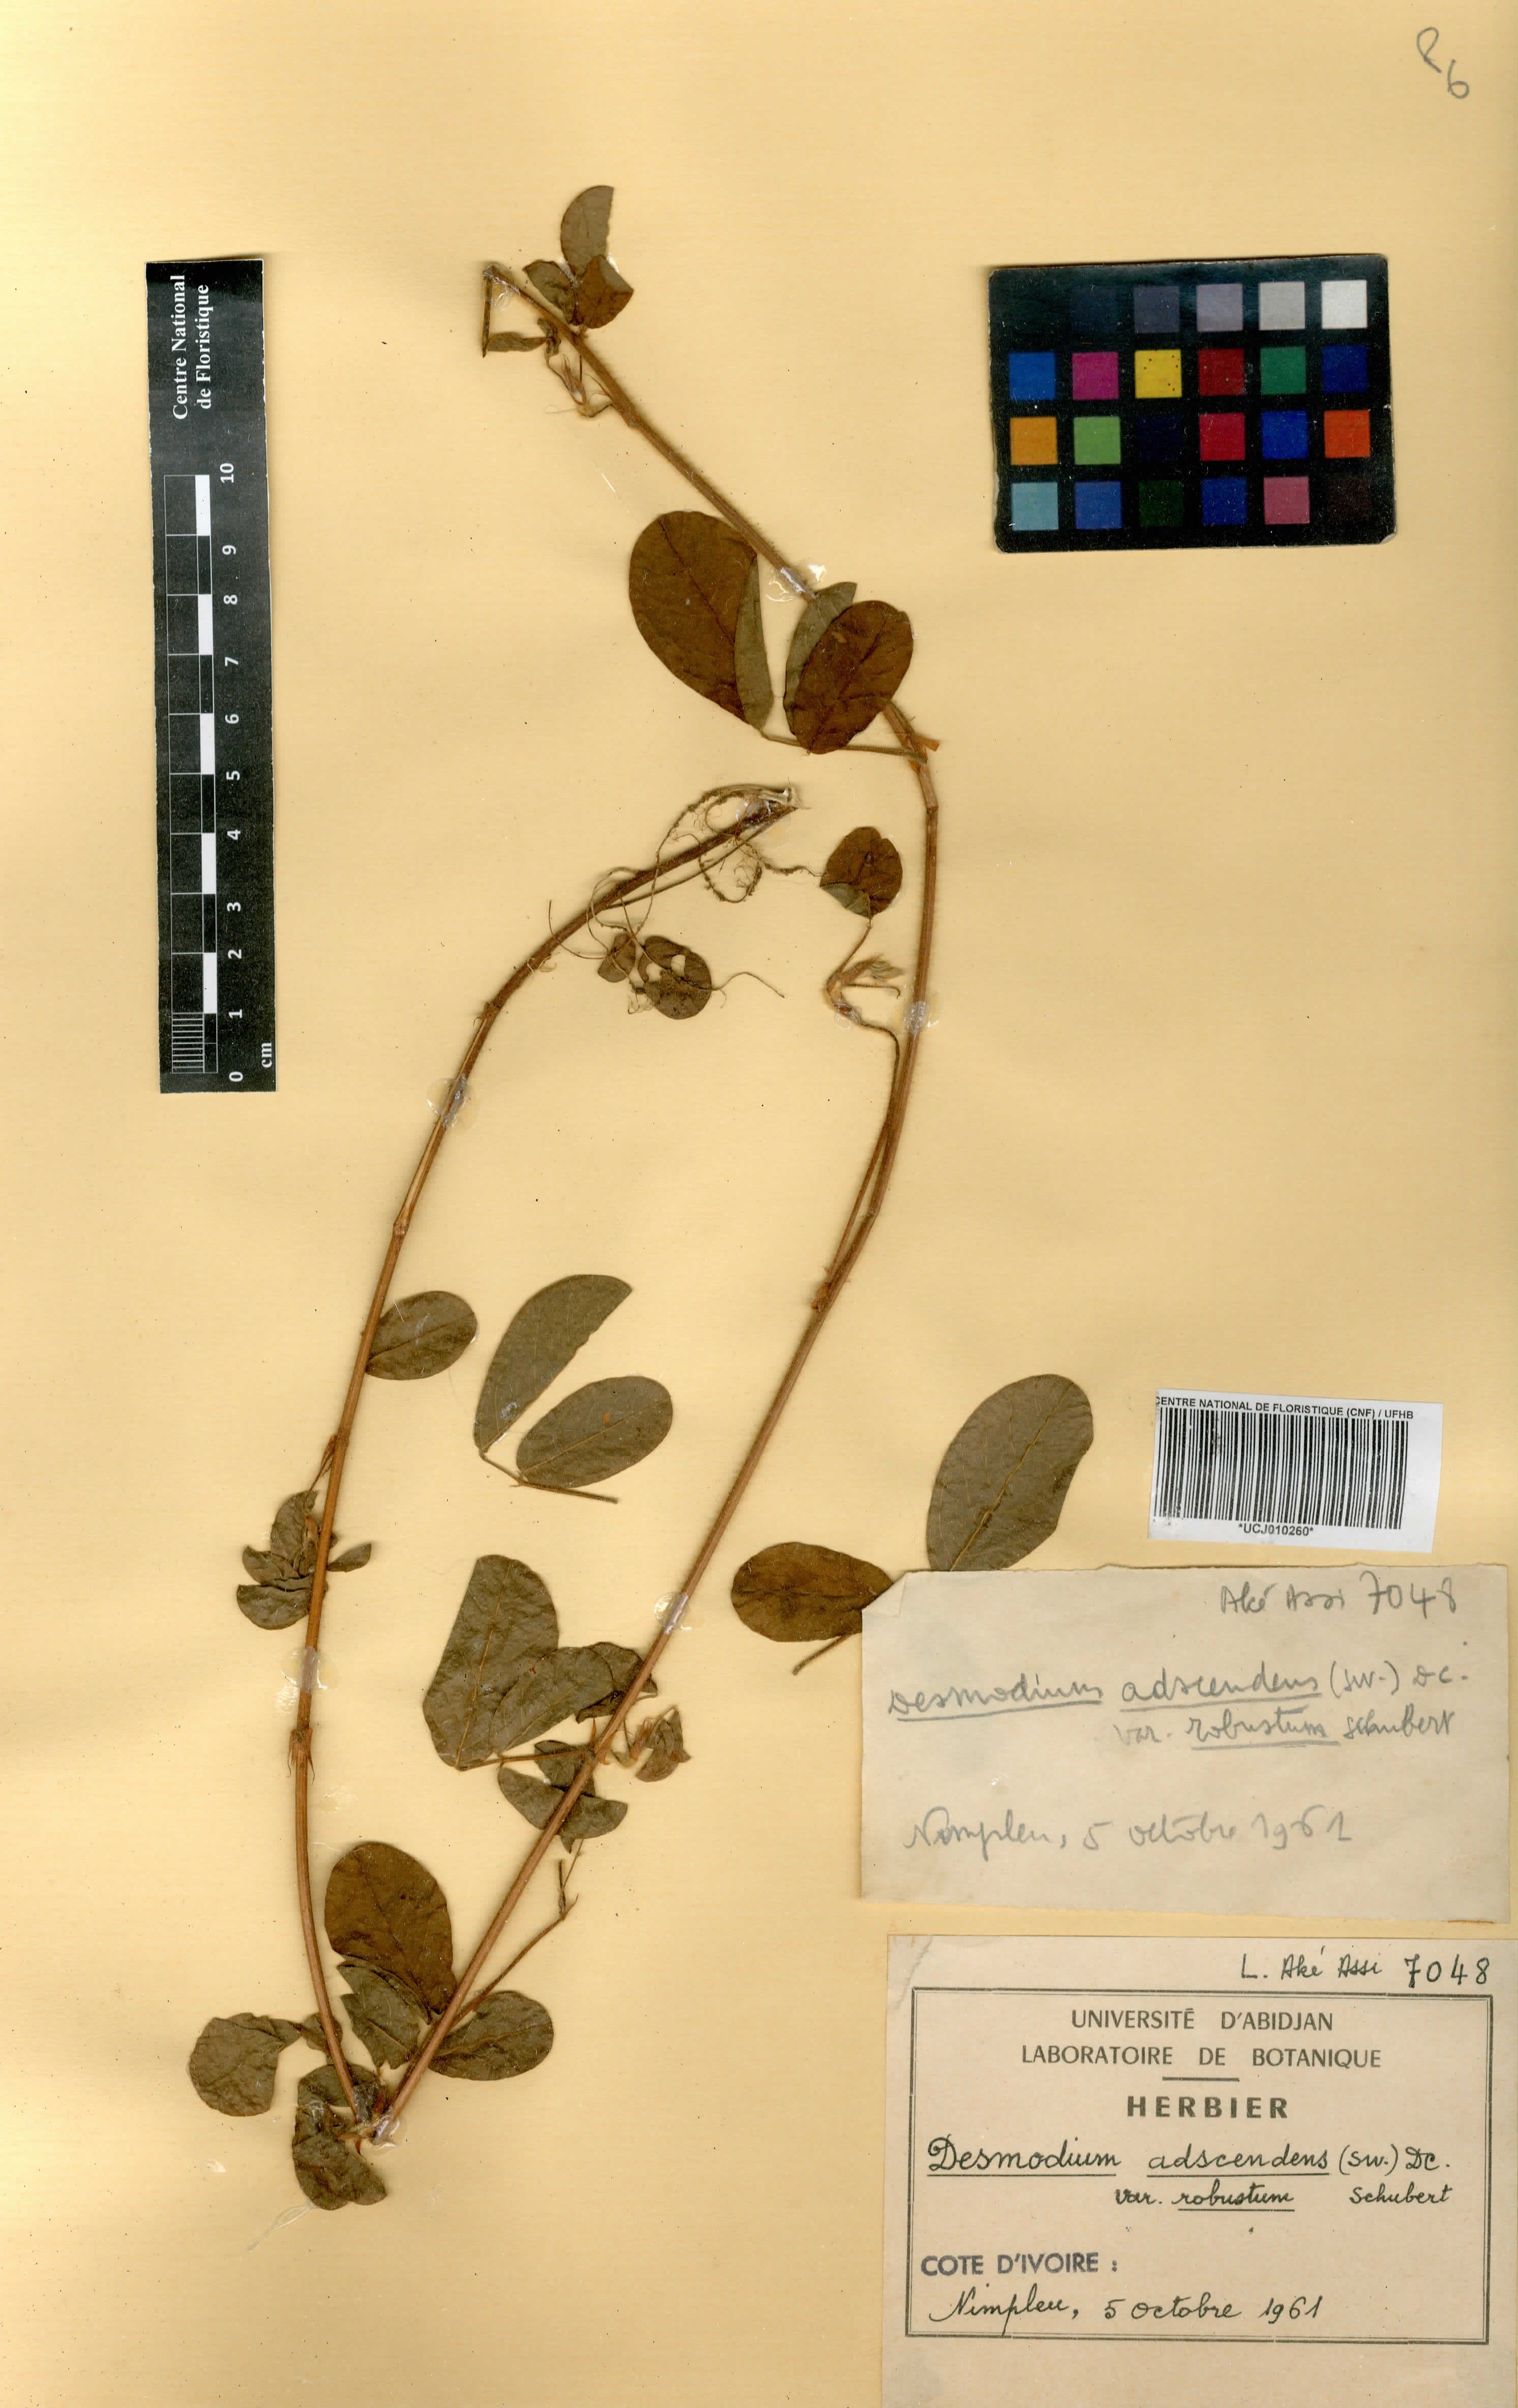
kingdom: Plantae
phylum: Tracheophyta
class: Magnoliopsida
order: Fabales
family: Fabaceae
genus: Grona
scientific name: Grona adscendens
